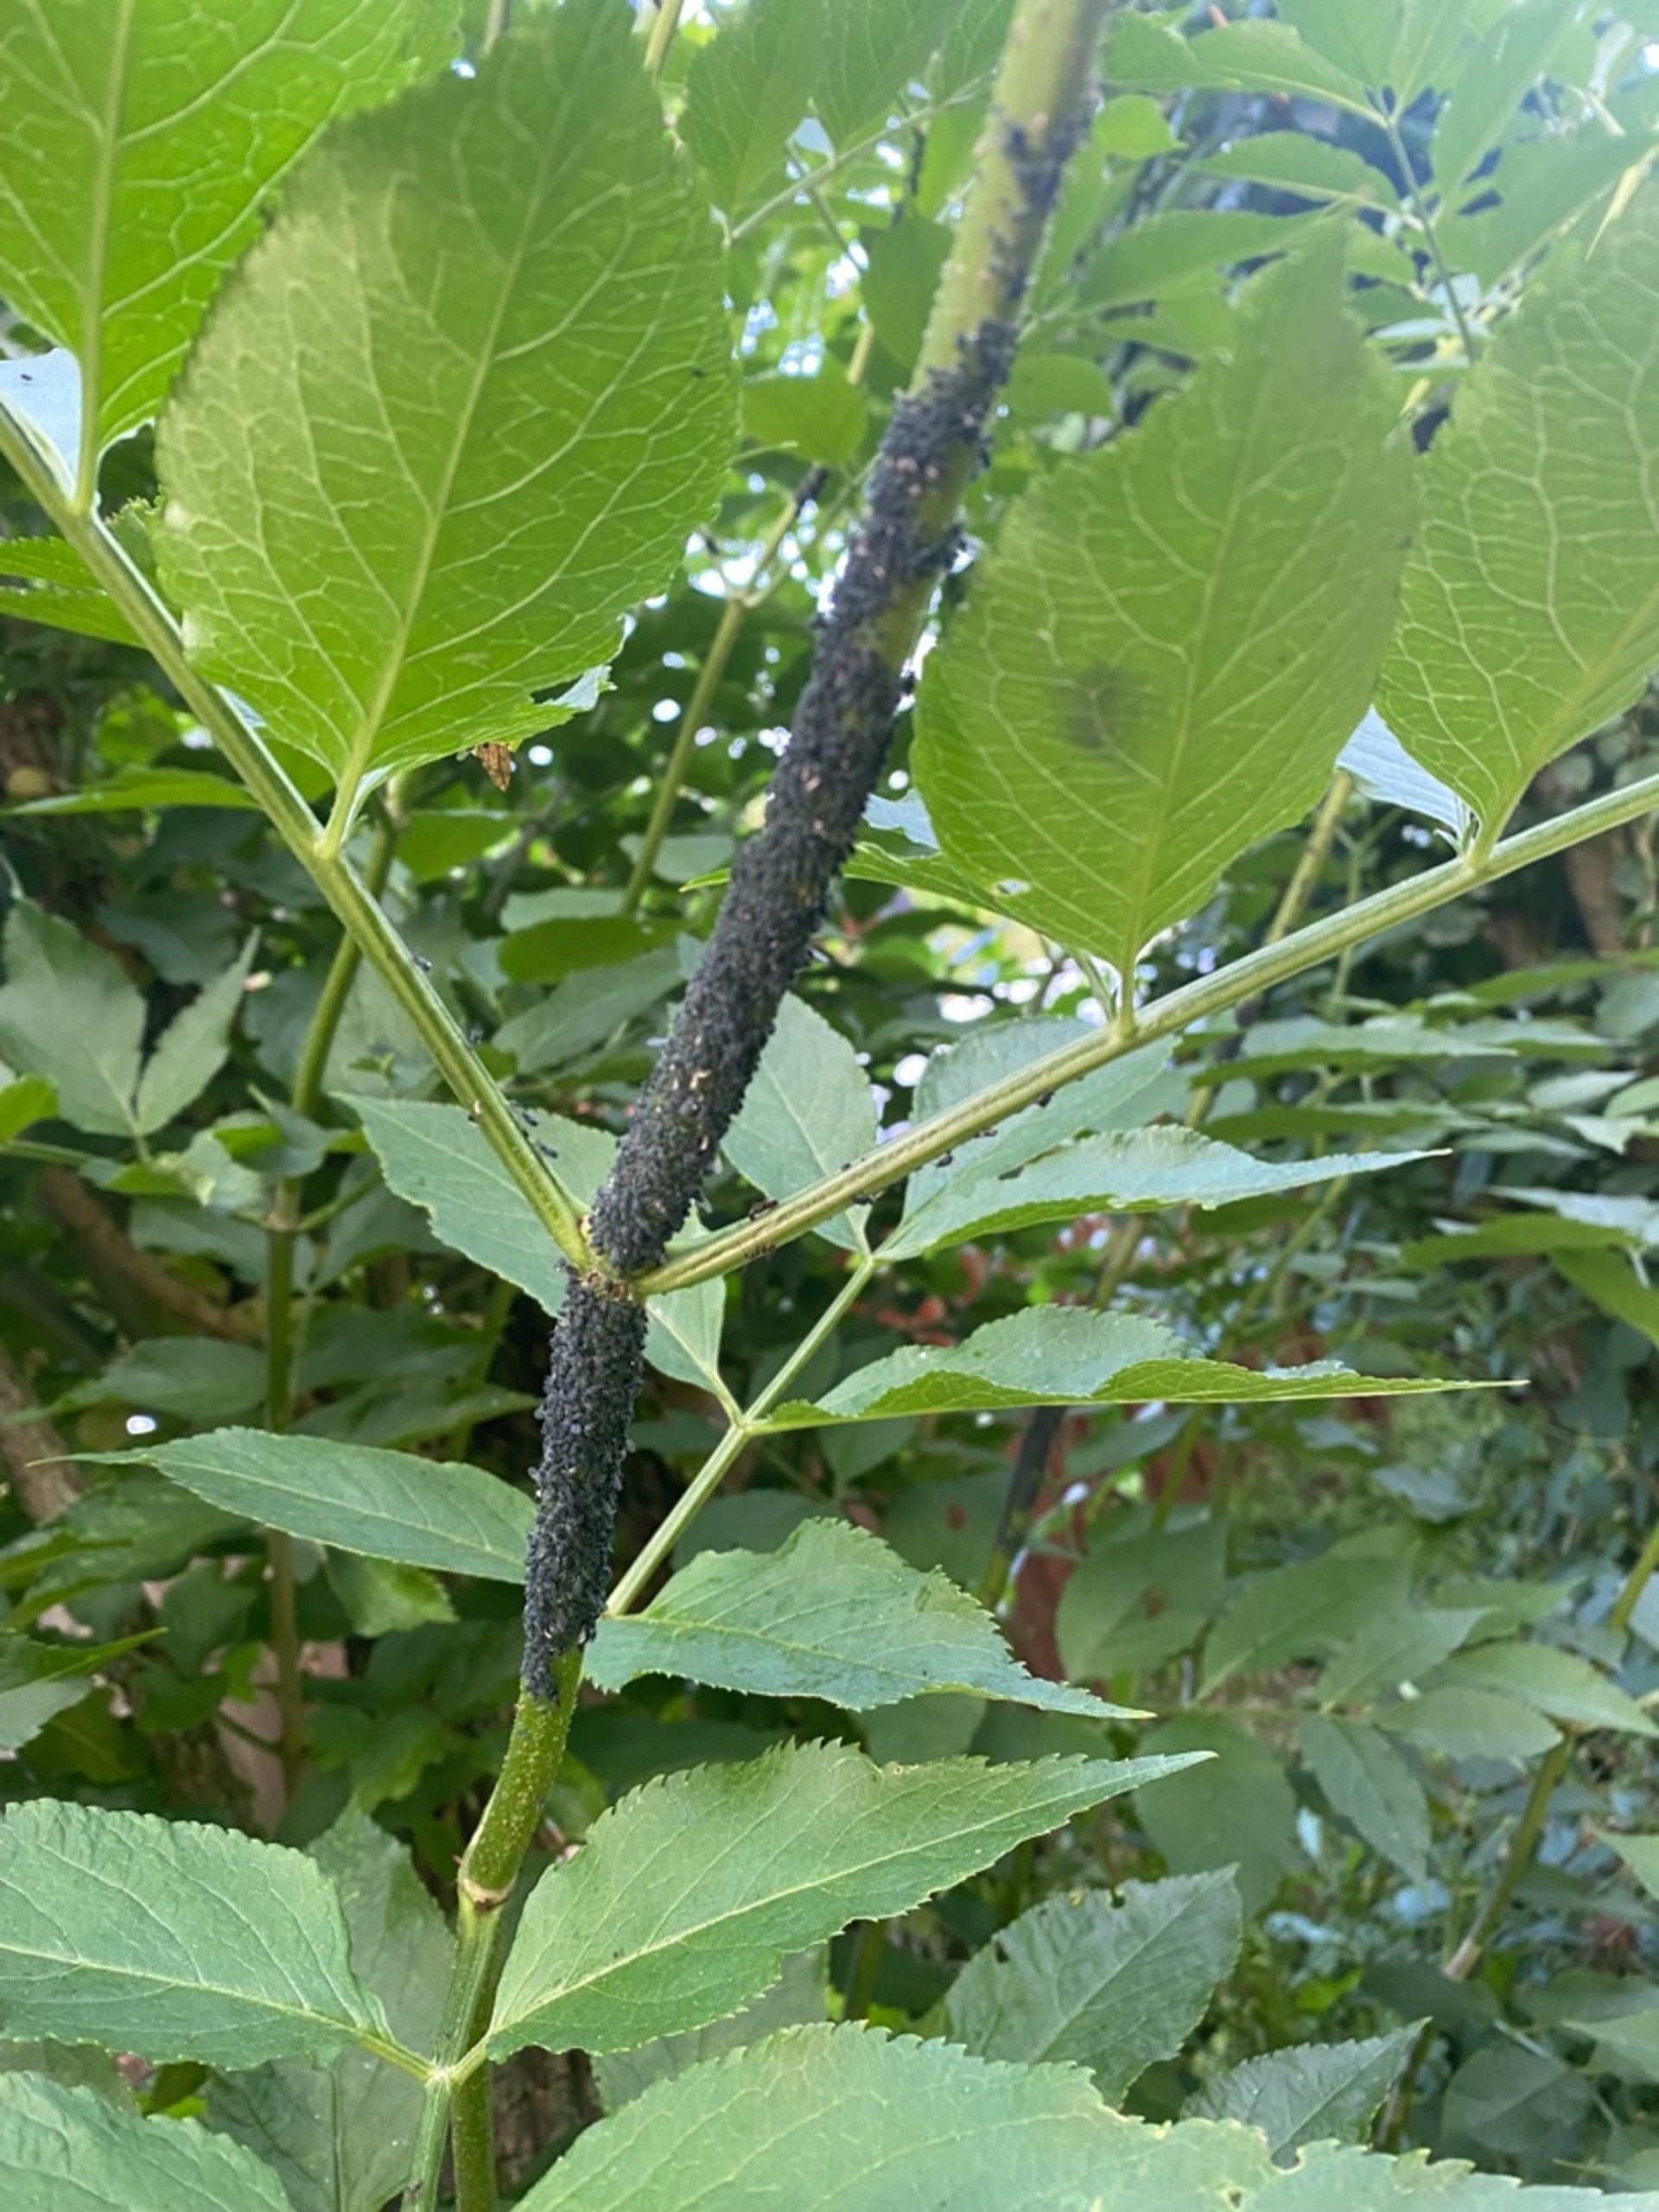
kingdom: Animalia
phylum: Arthropoda
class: Insecta
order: Hemiptera
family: Aphididae
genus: Aphis
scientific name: Aphis sambuci
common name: Hyldebladlus
